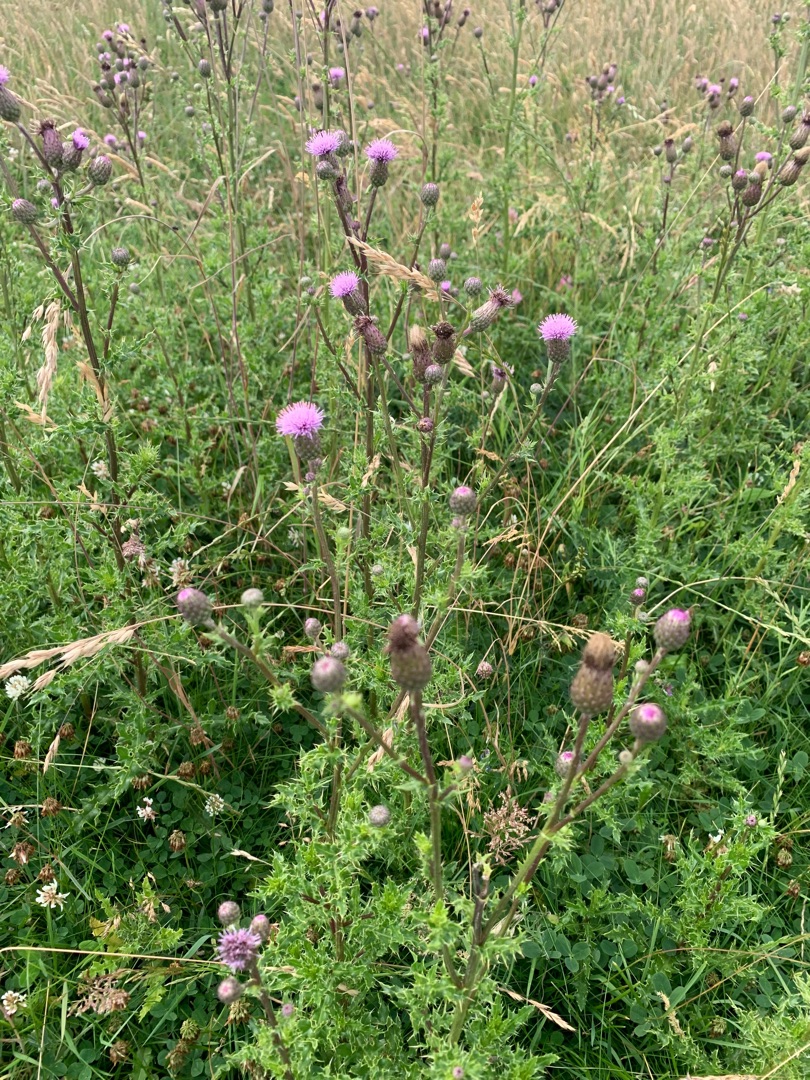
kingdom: Plantae
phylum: Tracheophyta
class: Magnoliopsida
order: Asterales
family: Asteraceae
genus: Cirsium
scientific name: Cirsium arvense
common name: Ager-tidsel
